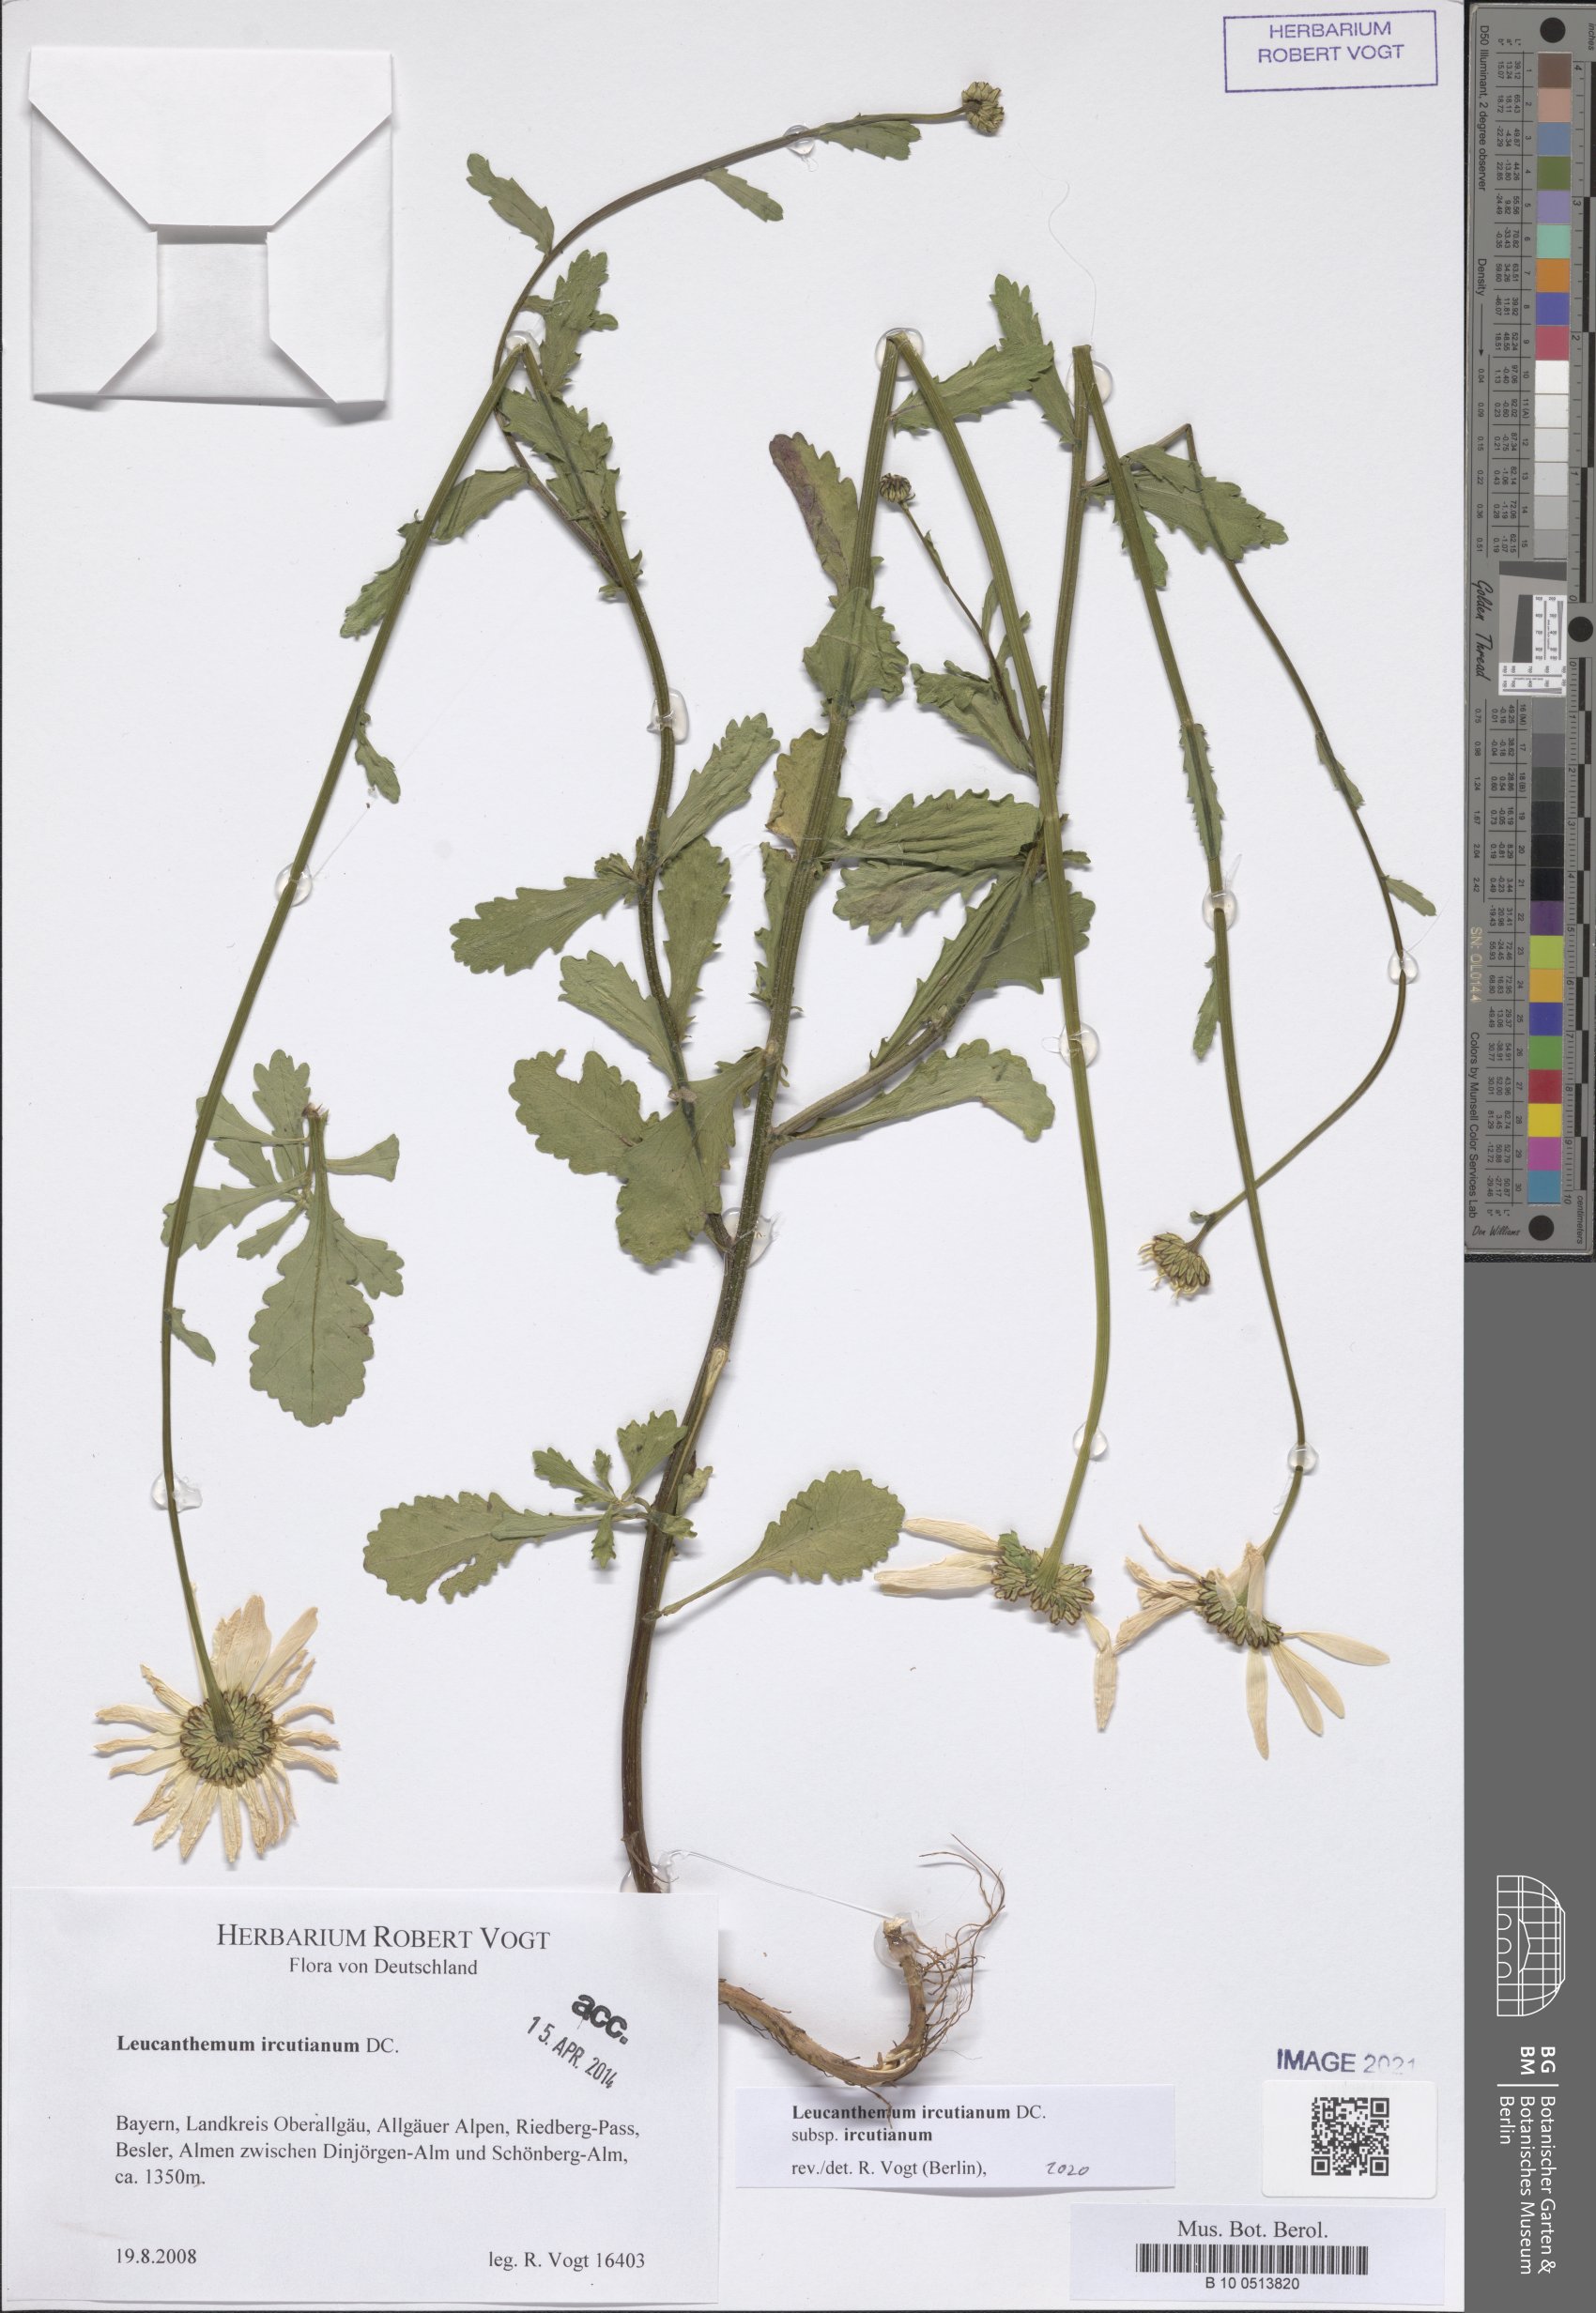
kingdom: Plantae
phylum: Tracheophyta
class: Magnoliopsida
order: Asterales
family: Asteraceae
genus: Leucanthemum
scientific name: Leucanthemum ircutianum
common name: Daisy
